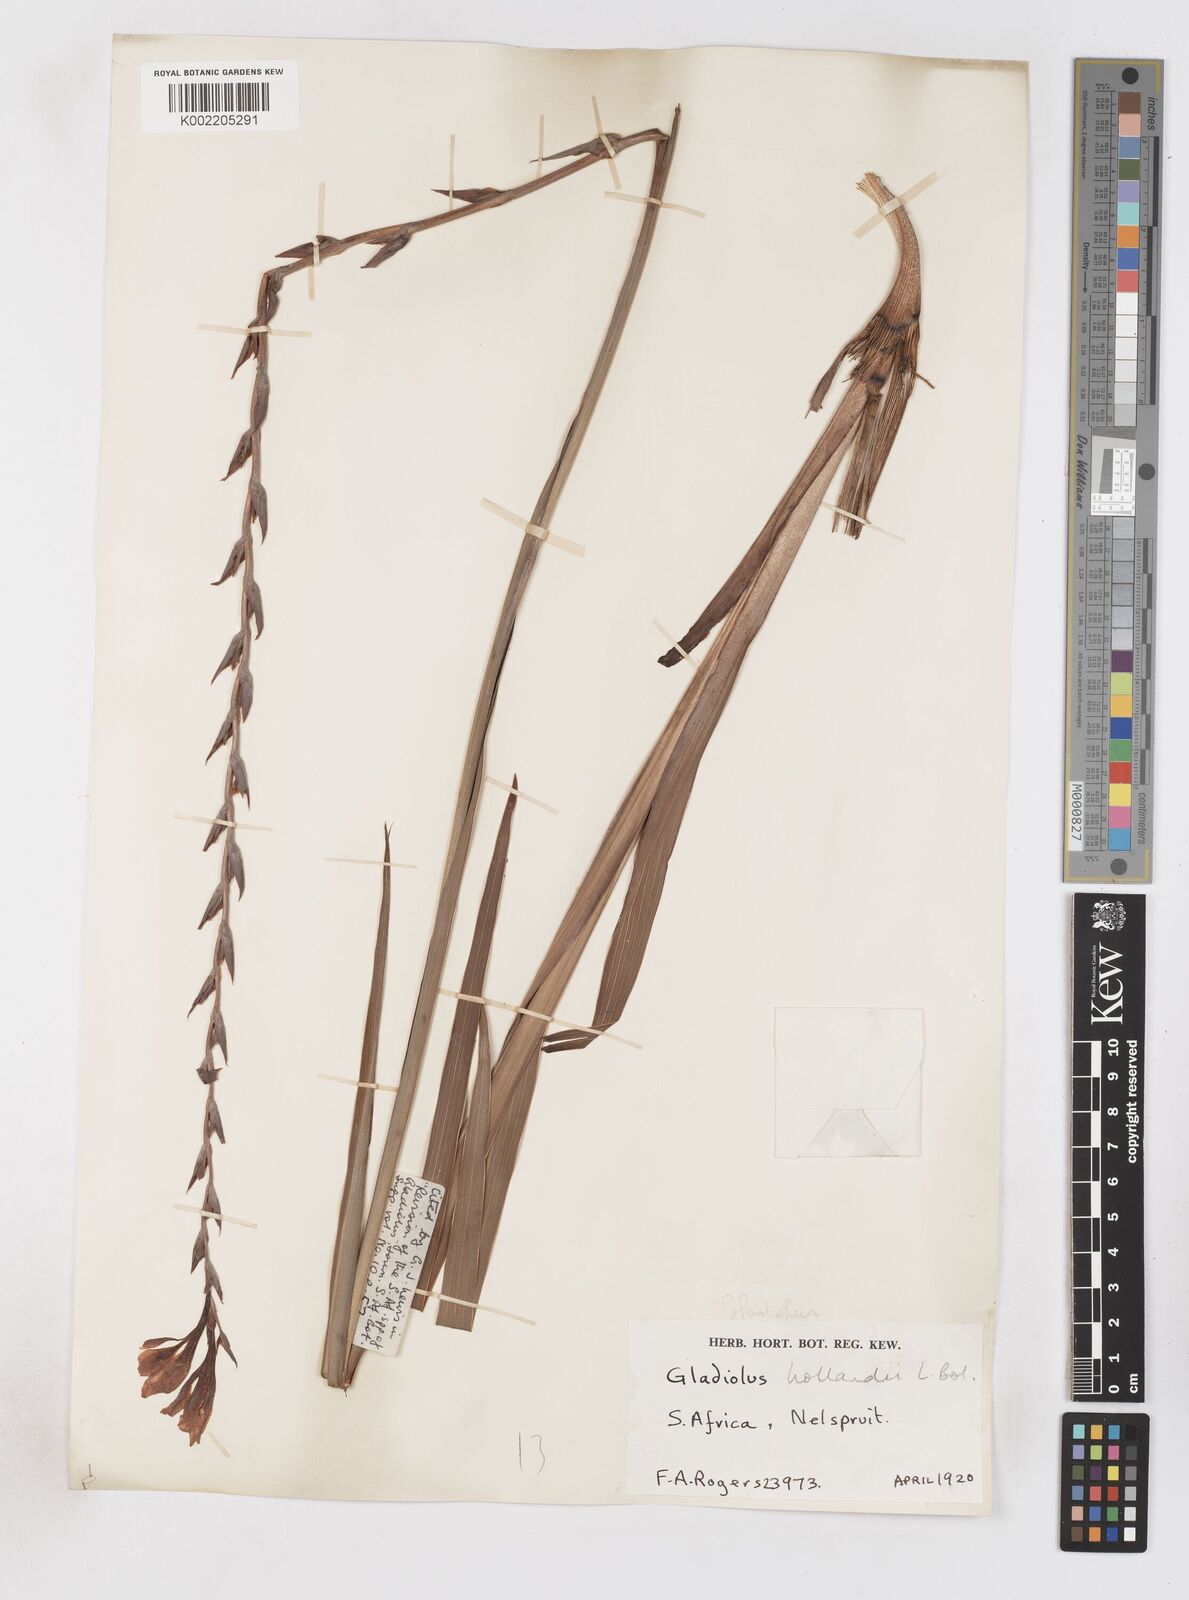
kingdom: Plantae
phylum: Tracheophyta
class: Liliopsida
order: Asparagales
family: Iridaceae
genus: Gladiolus
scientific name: Gladiolus hollandii
